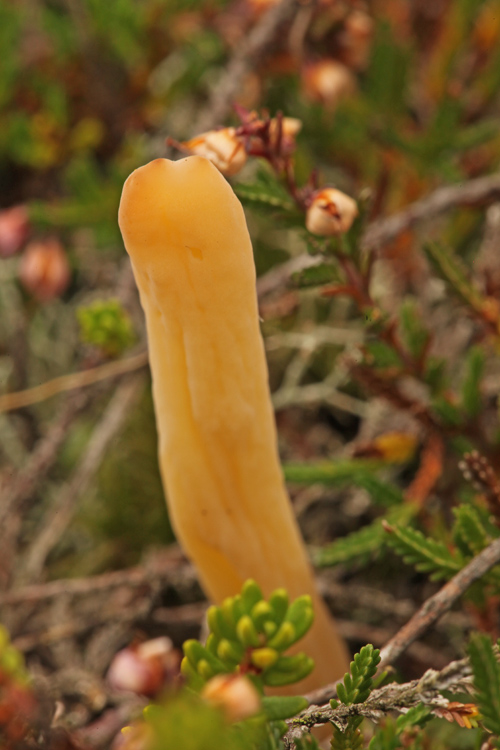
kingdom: Fungi
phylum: Basidiomycota
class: Agaricomycetes
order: Agaricales
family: Clavariaceae
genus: Clavaria
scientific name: Clavaria argillacea
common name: lerfarvet køllesvamp
